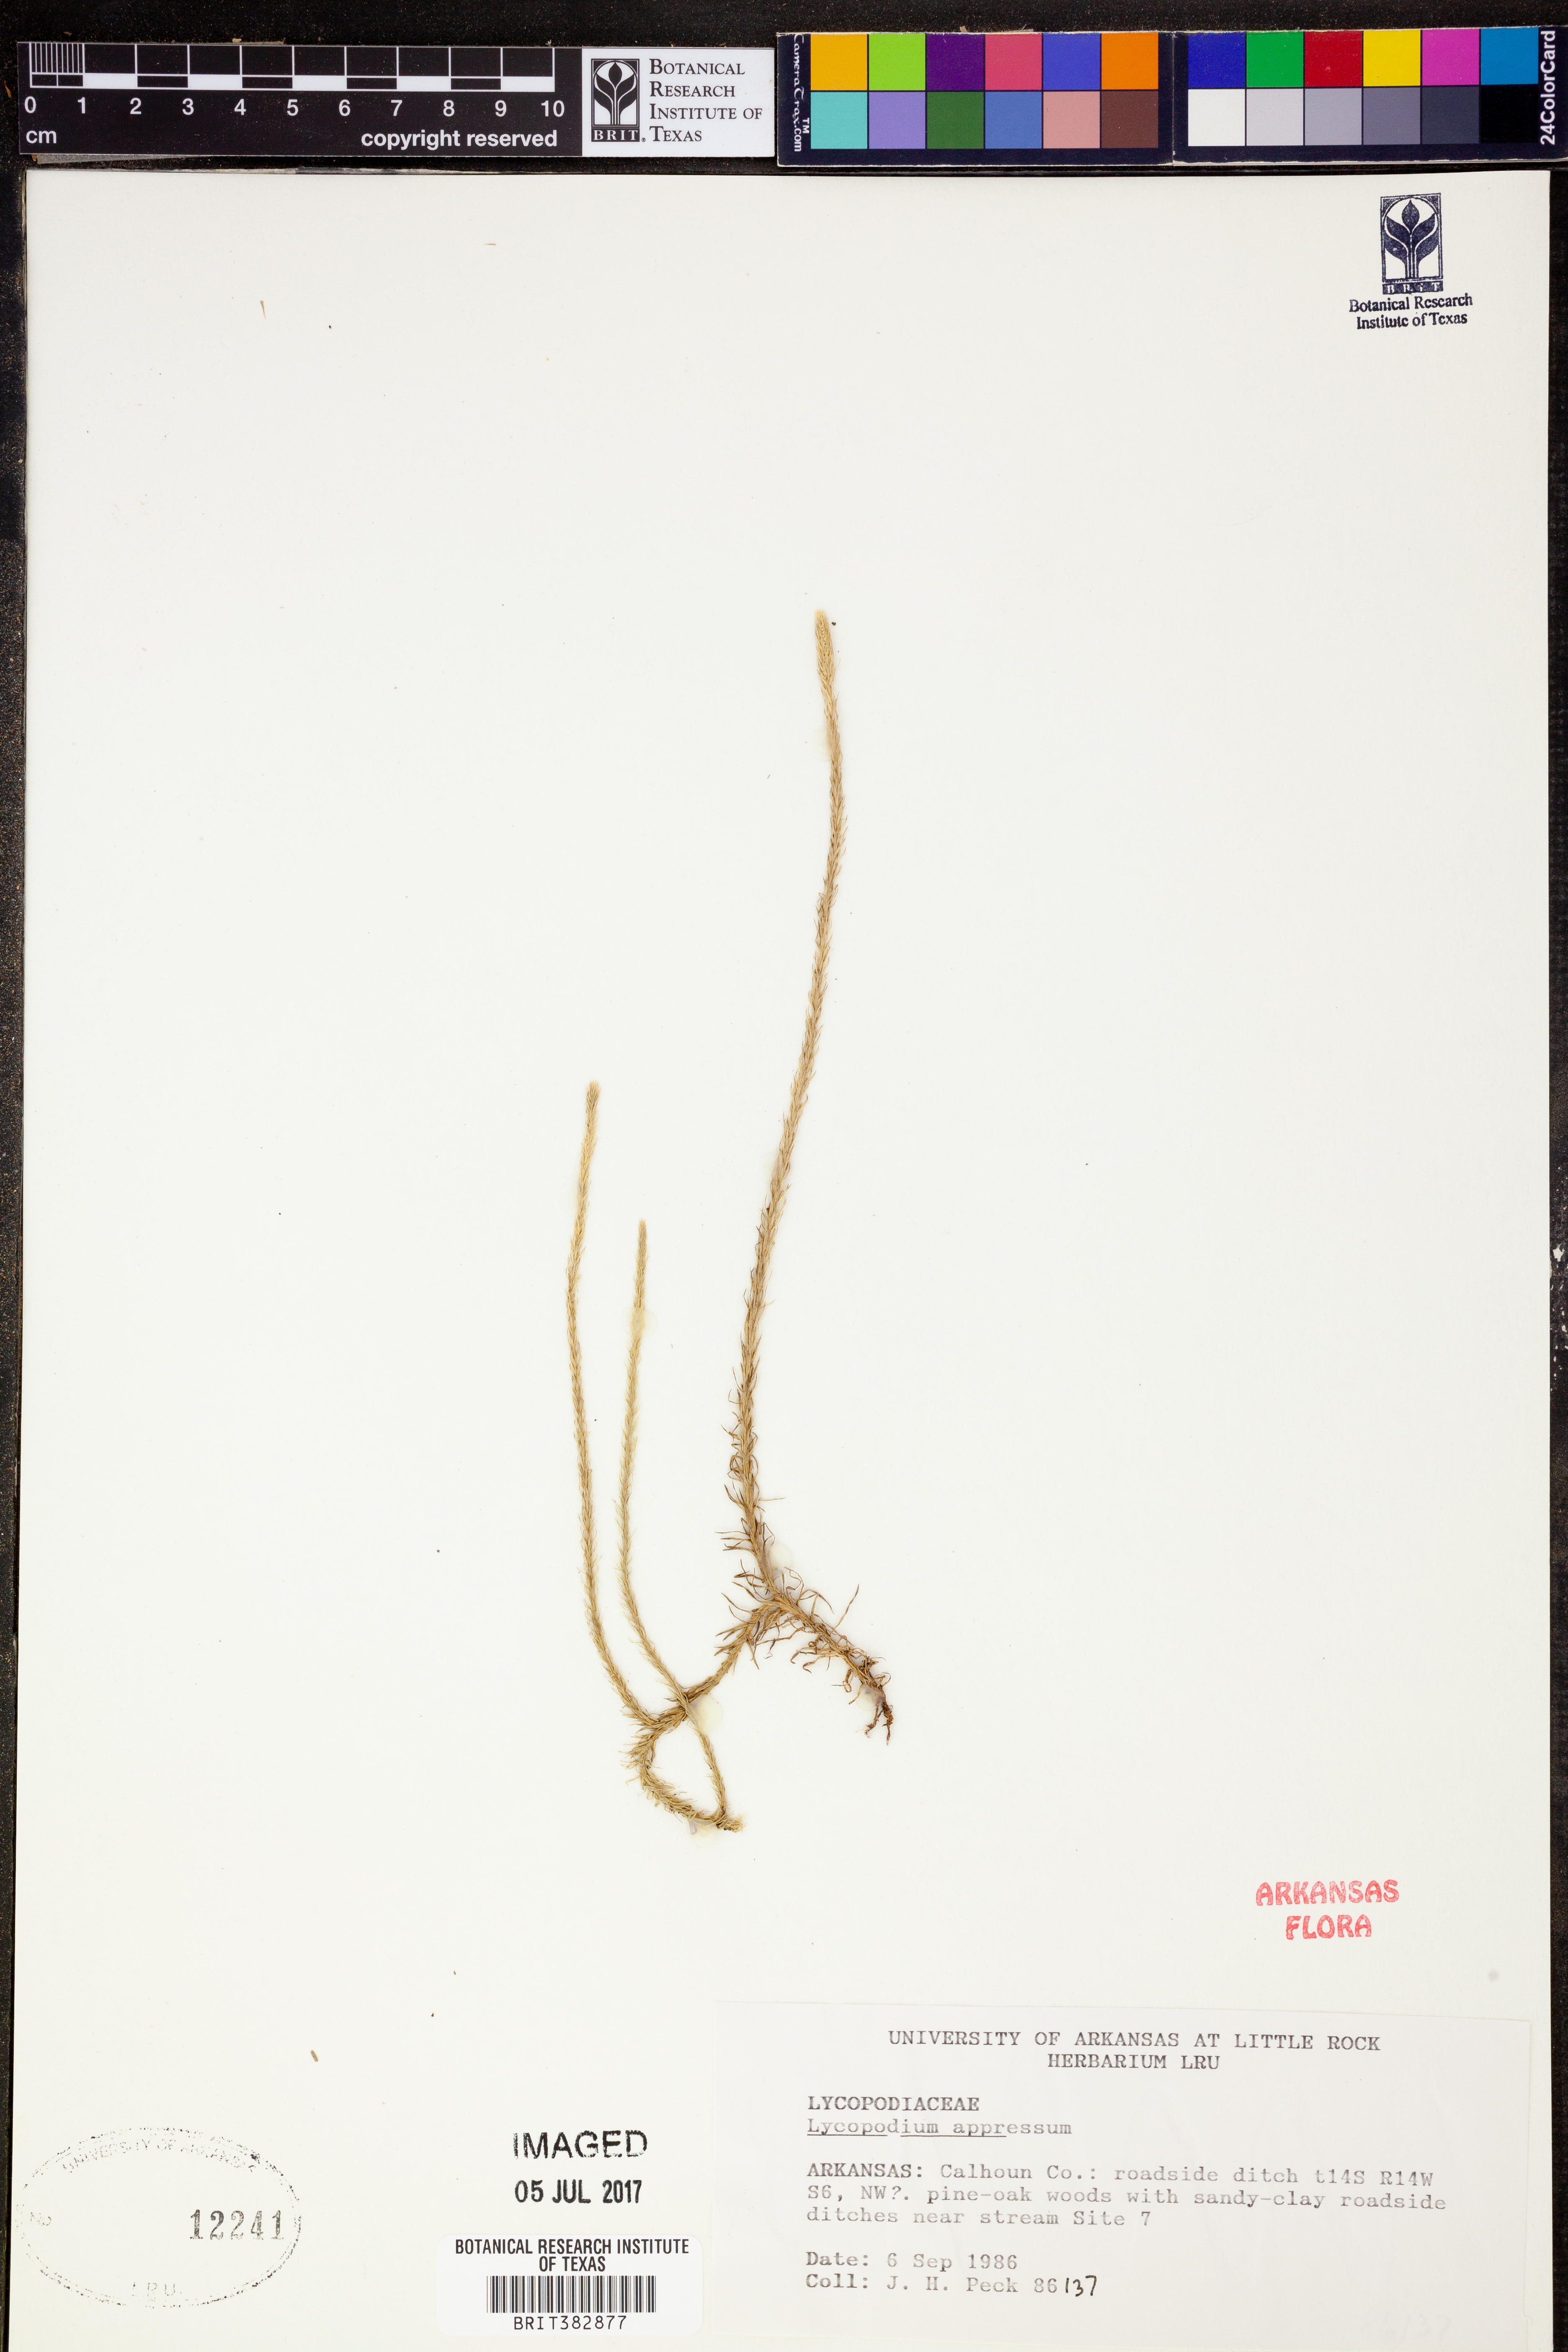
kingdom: Plantae
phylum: Tracheophyta
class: Lycopodiopsida
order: Lycopodiales
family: Lycopodiaceae
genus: Lycopodiella
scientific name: Lycopodiella appressa
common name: Appressed bog clubmoss
